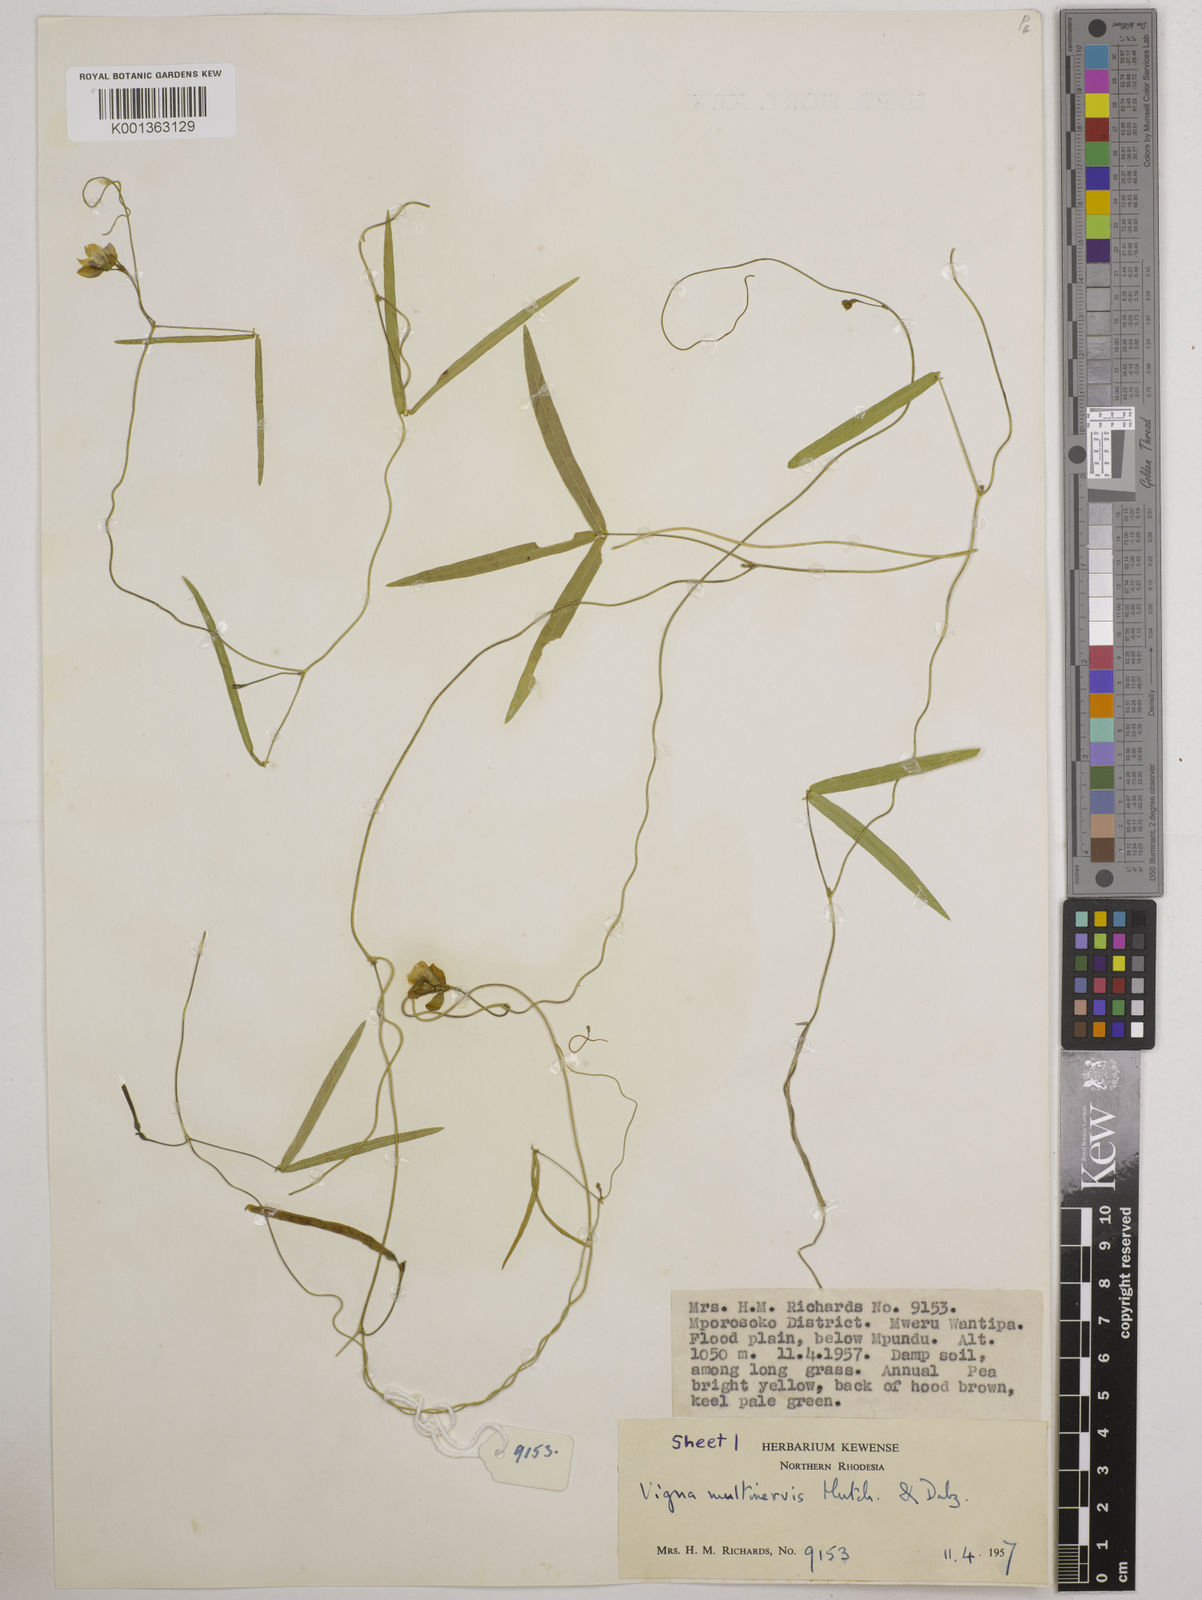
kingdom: Plantae
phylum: Tracheophyta
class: Magnoliopsida
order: Fabales
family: Fabaceae
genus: Vigna
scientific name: Vigna multinervis
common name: Fula-pulaar
